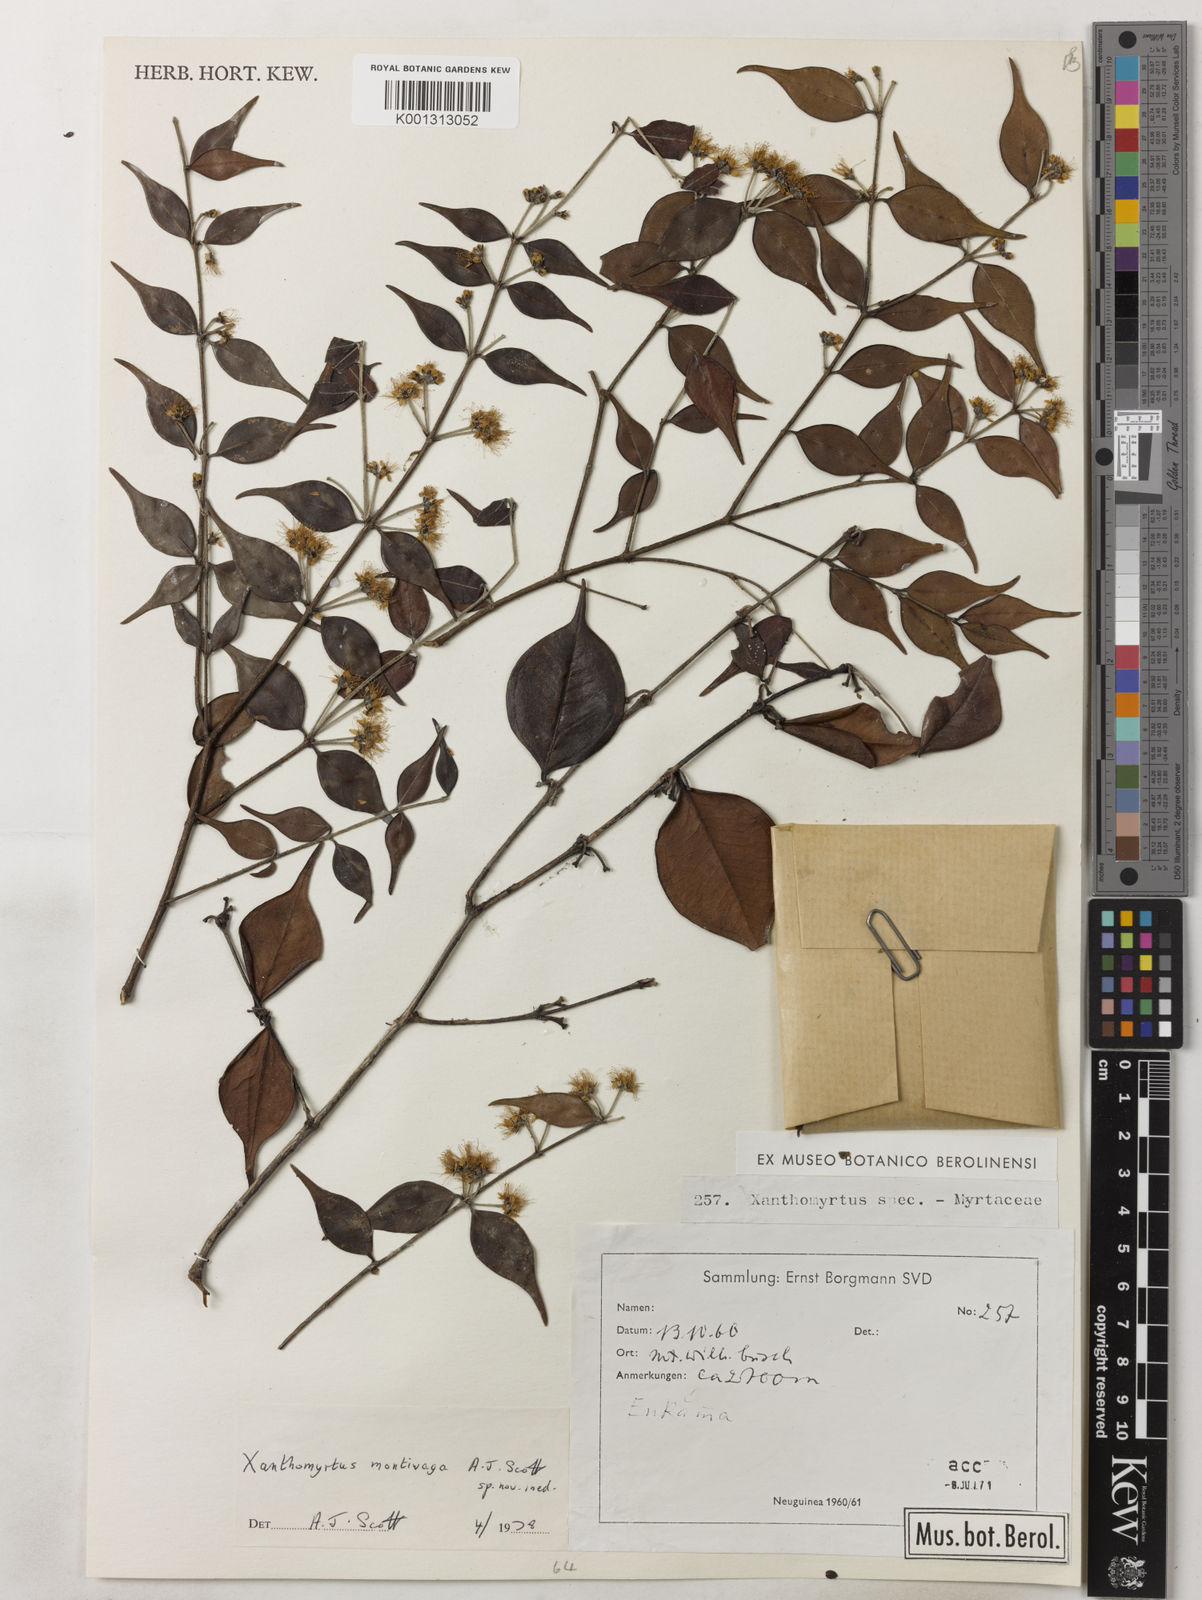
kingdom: Plantae
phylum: Tracheophyta
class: Magnoliopsida
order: Myrtales
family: Myrtaceae
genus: Xanthomyrtus
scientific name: Xanthomyrtus montivaga
